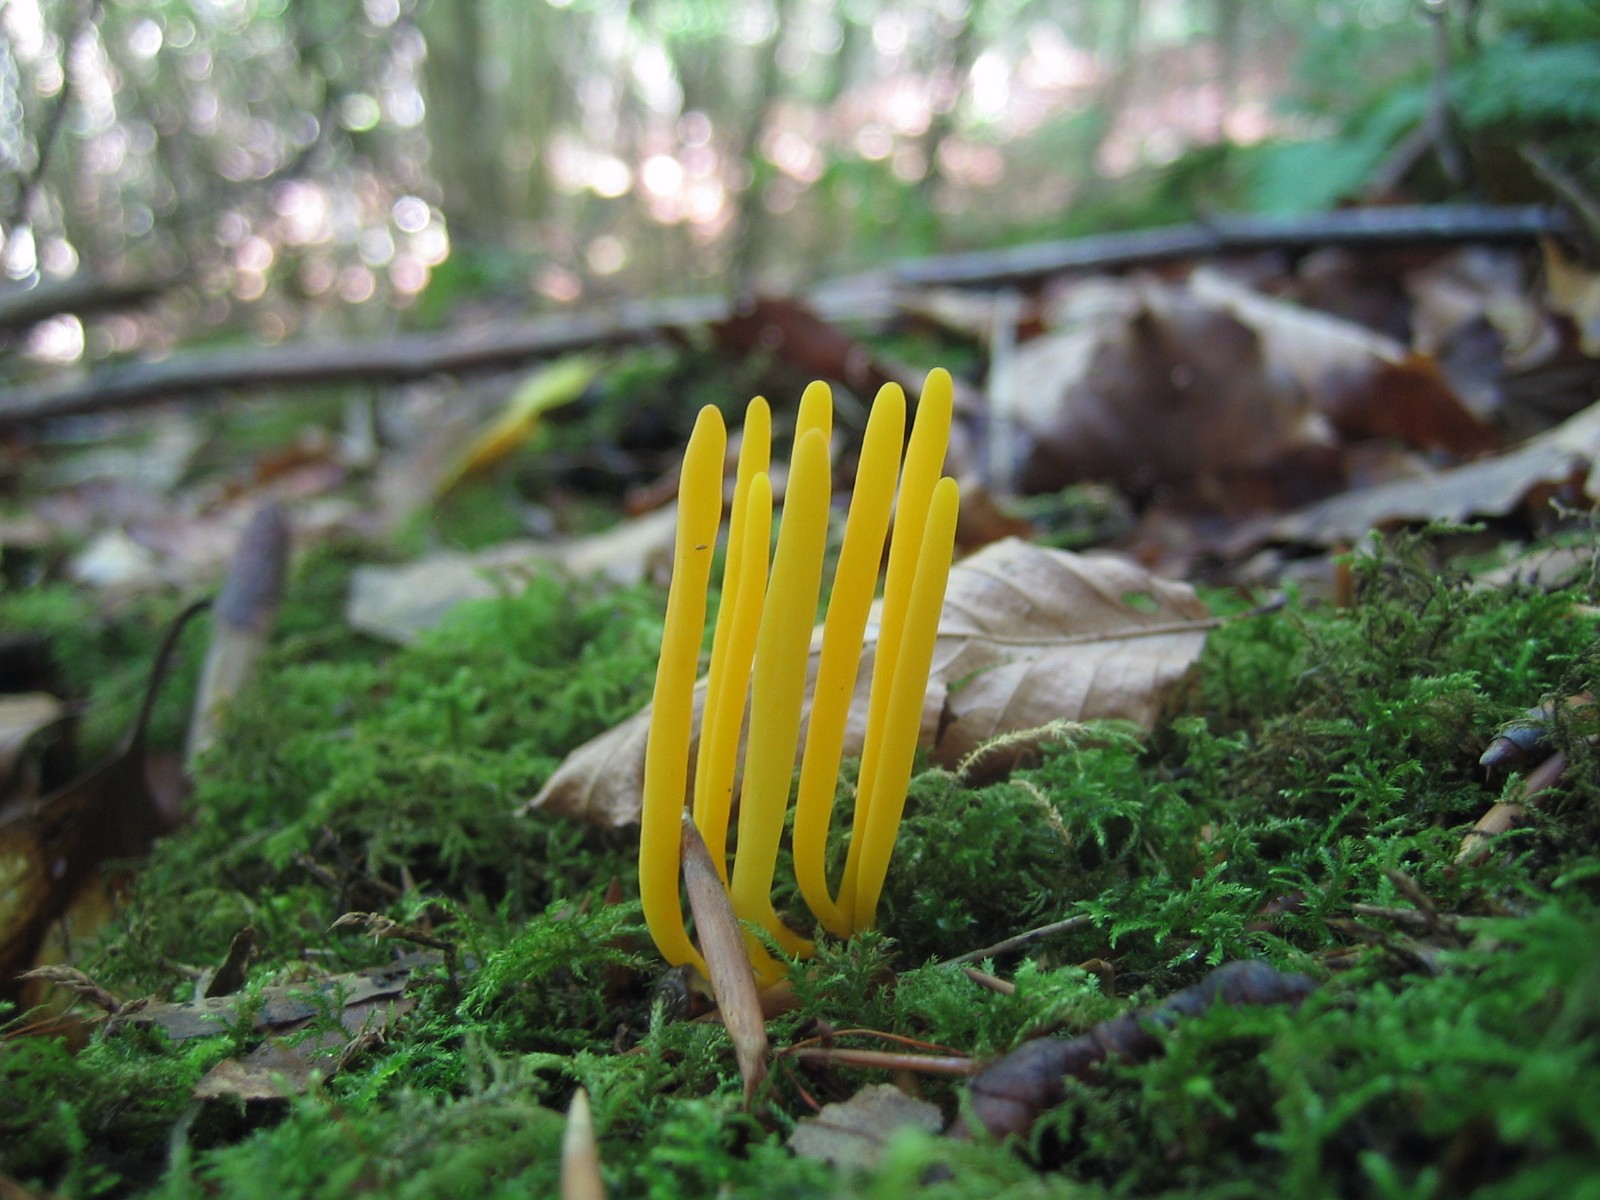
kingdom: Fungi
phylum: Basidiomycota
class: Agaricomycetes
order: Agaricales
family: Clavariaceae
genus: Clavulinopsis
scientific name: Clavulinopsis helvola
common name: orangegul køllesvamp
